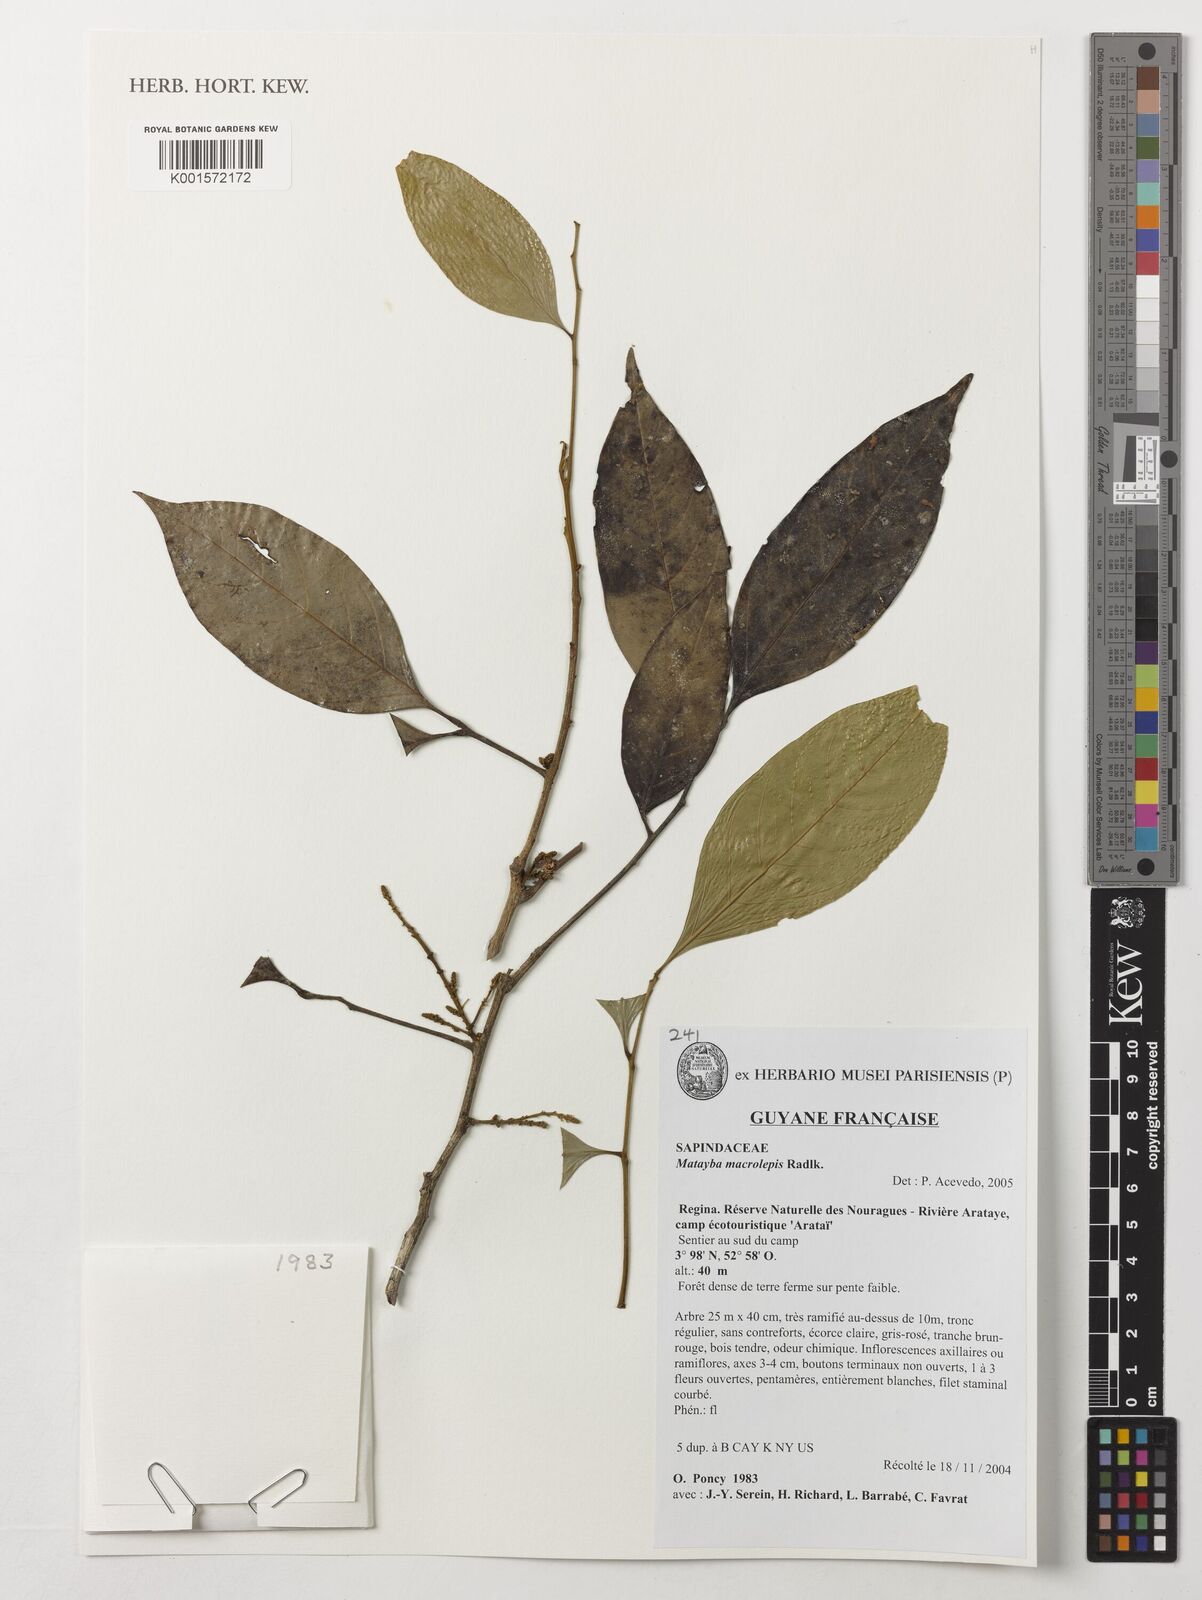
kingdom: Plantae
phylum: Tracheophyta
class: Magnoliopsida
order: Sapindales
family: Sapindaceae
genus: Cupania
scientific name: Cupania macrostylis
